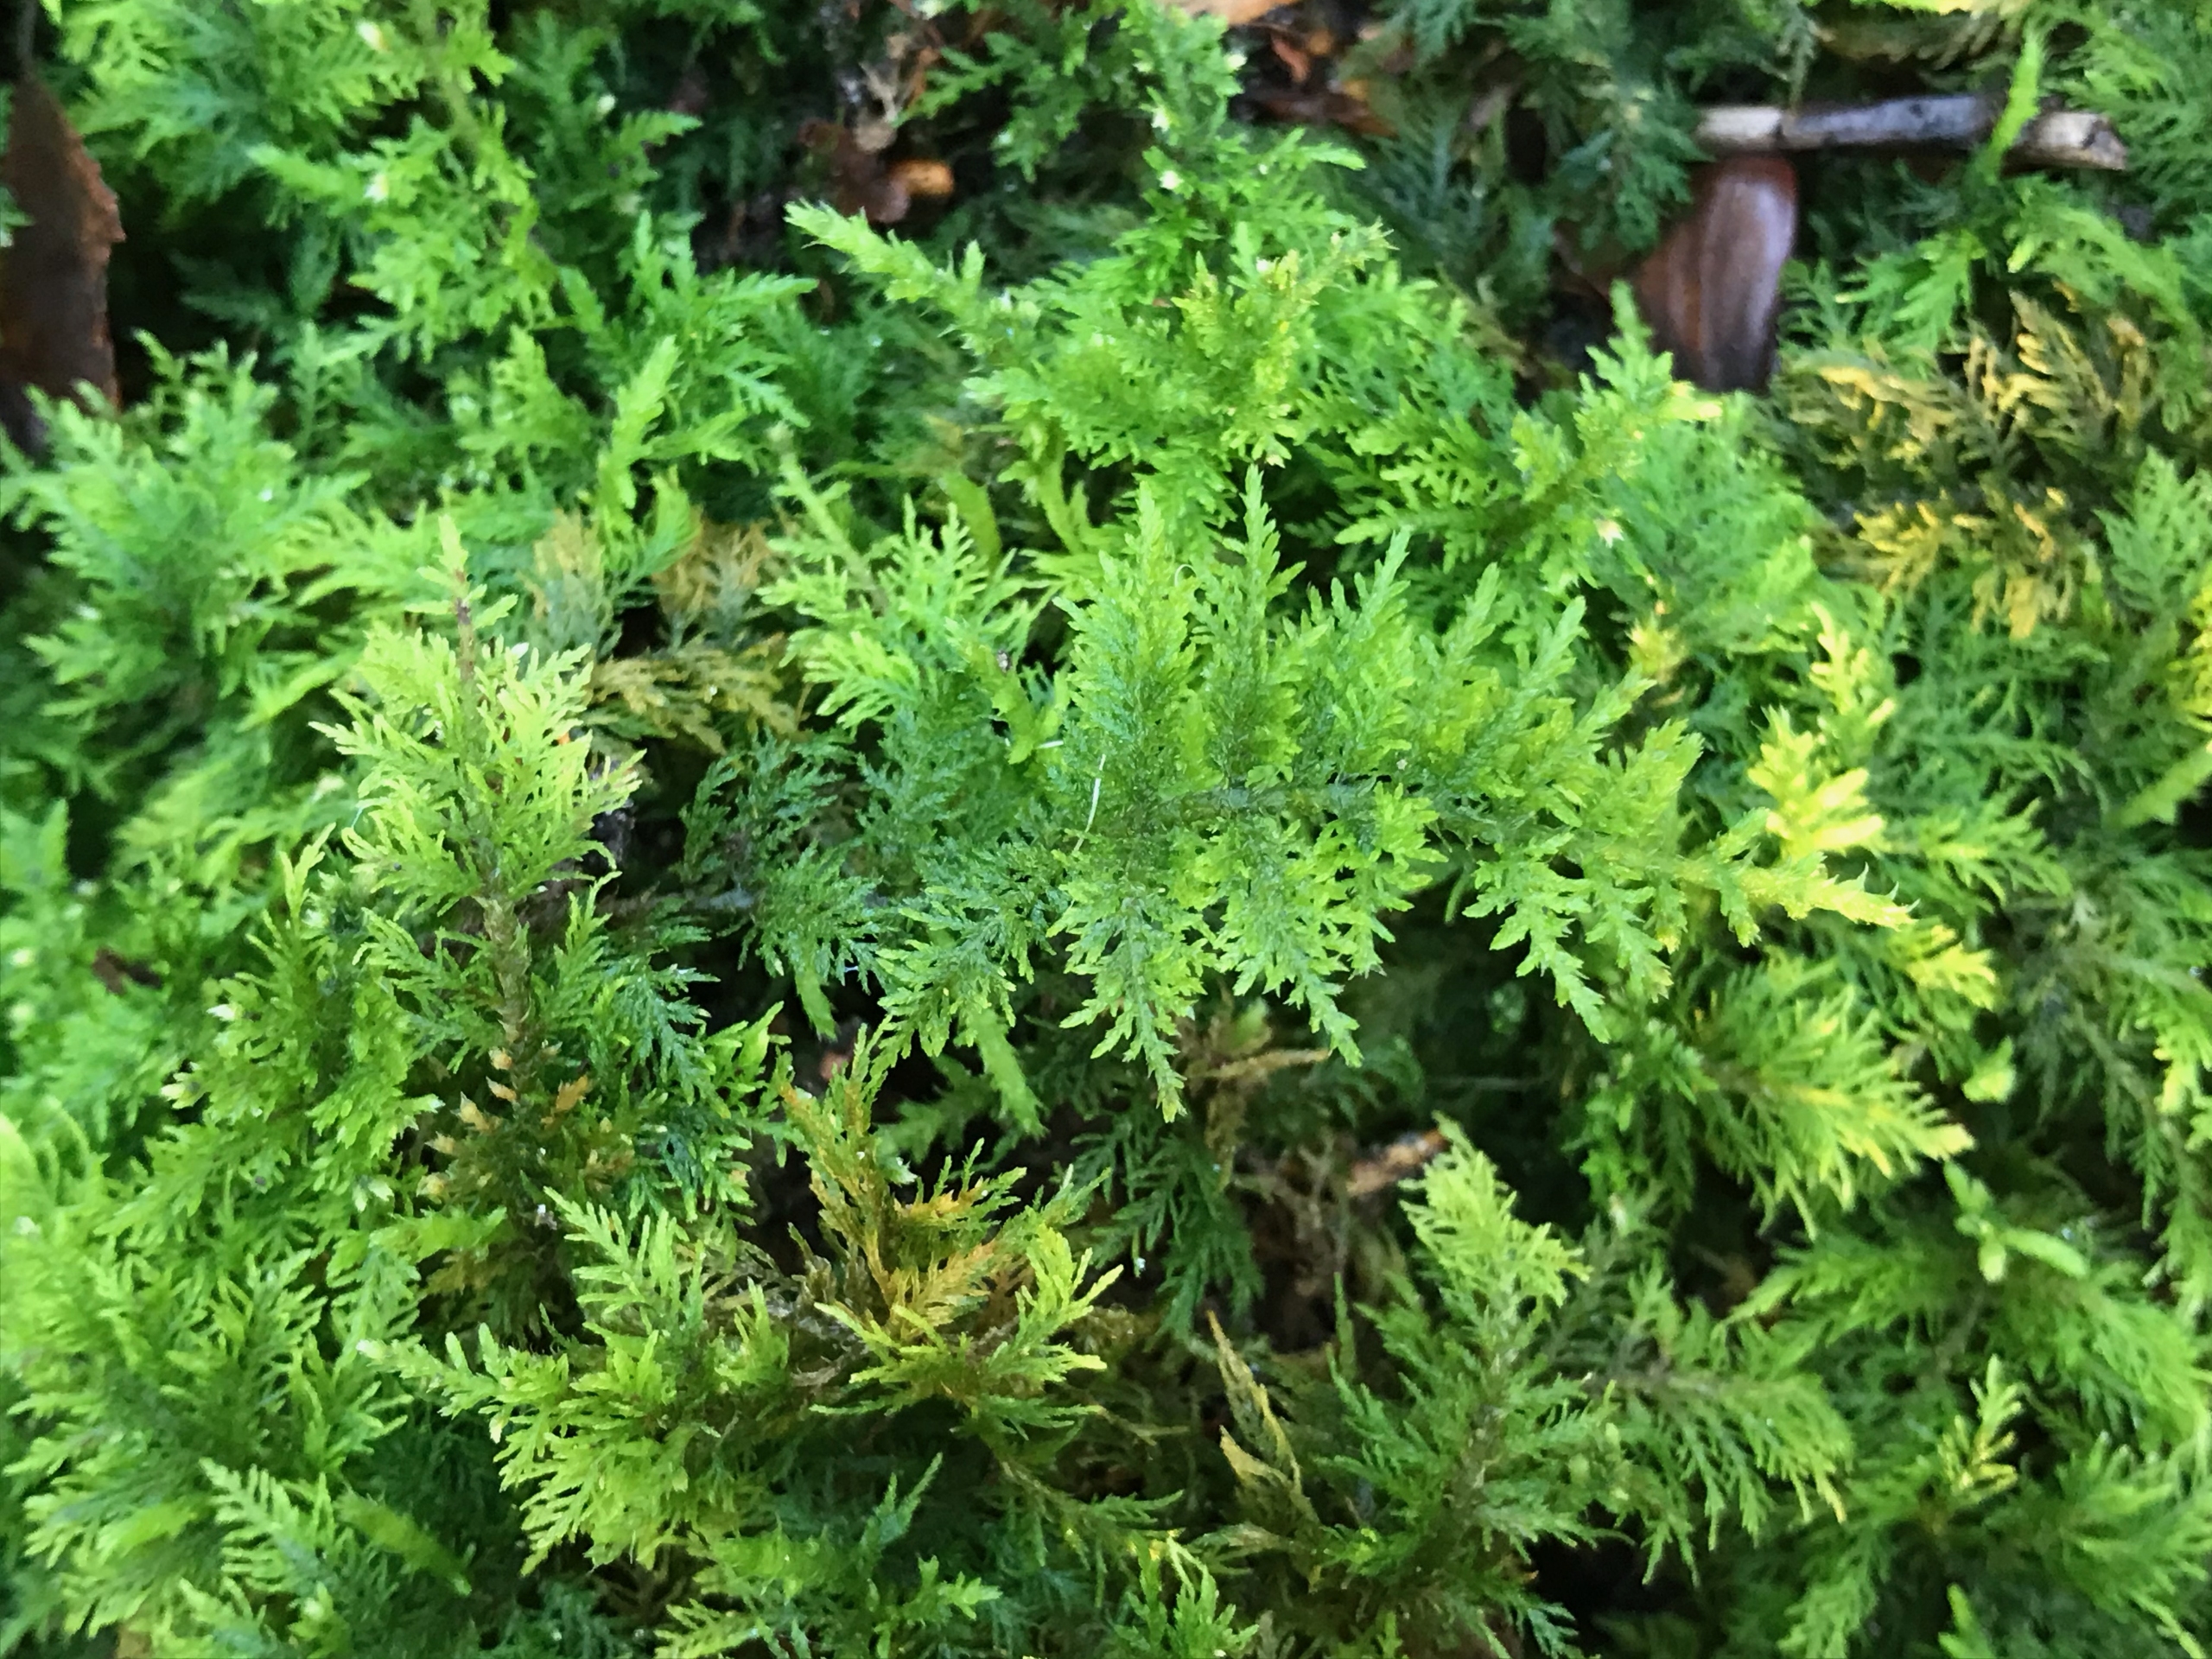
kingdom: Plantae
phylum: Bryophyta
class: Bryopsida
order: Hypnales
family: Thuidiaceae
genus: Thuidium
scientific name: Thuidium tamariscinum
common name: Pryd-bregnemos
